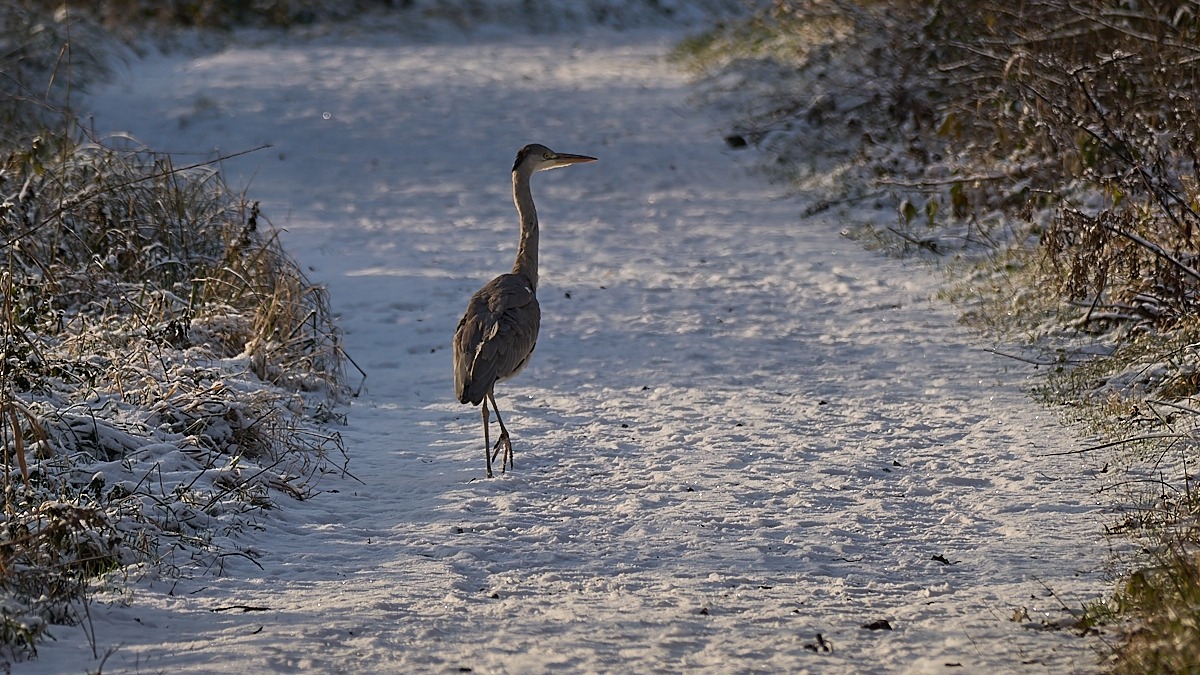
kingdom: Animalia
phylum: Chordata
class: Aves
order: Pelecaniformes
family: Ardeidae
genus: Ardea
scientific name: Ardea cinerea
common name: Fiskehejre
